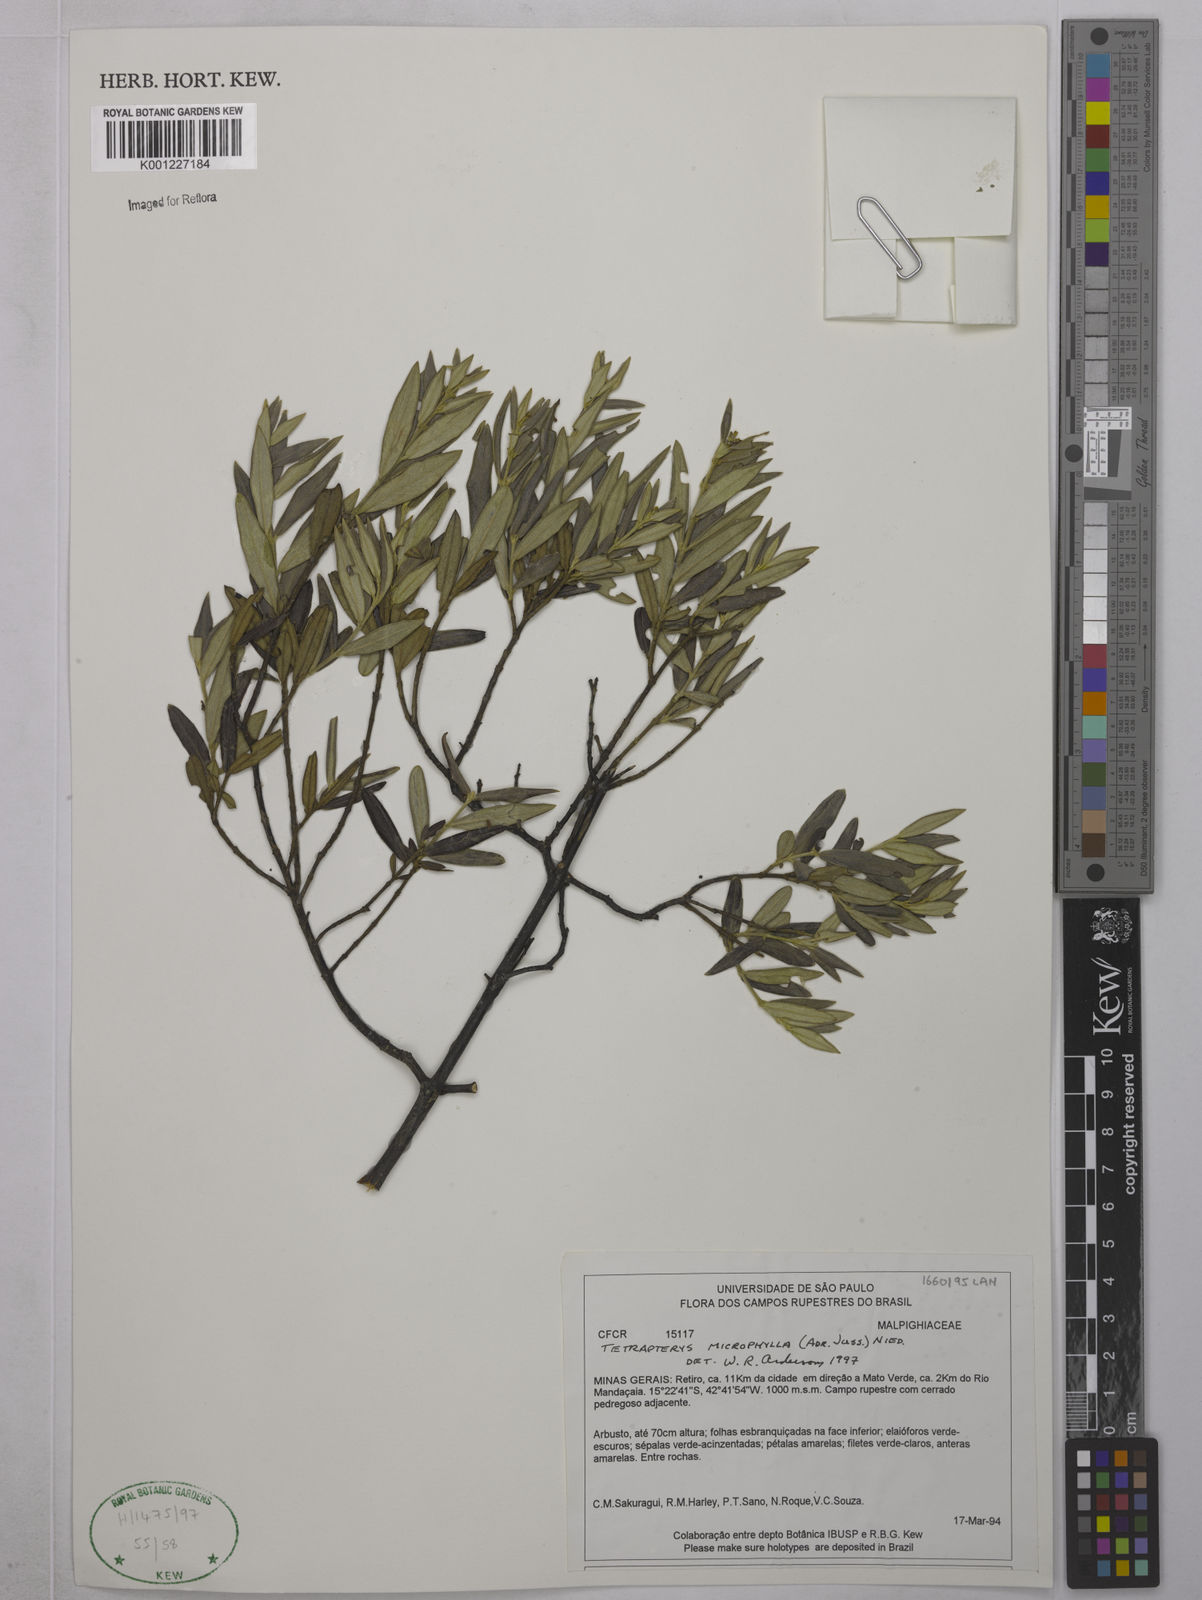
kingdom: Plantae
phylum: Tracheophyta
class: Magnoliopsida
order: Malpighiales
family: Malpighiaceae
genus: Glicophyllum
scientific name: Glicophyllum microphyllum
